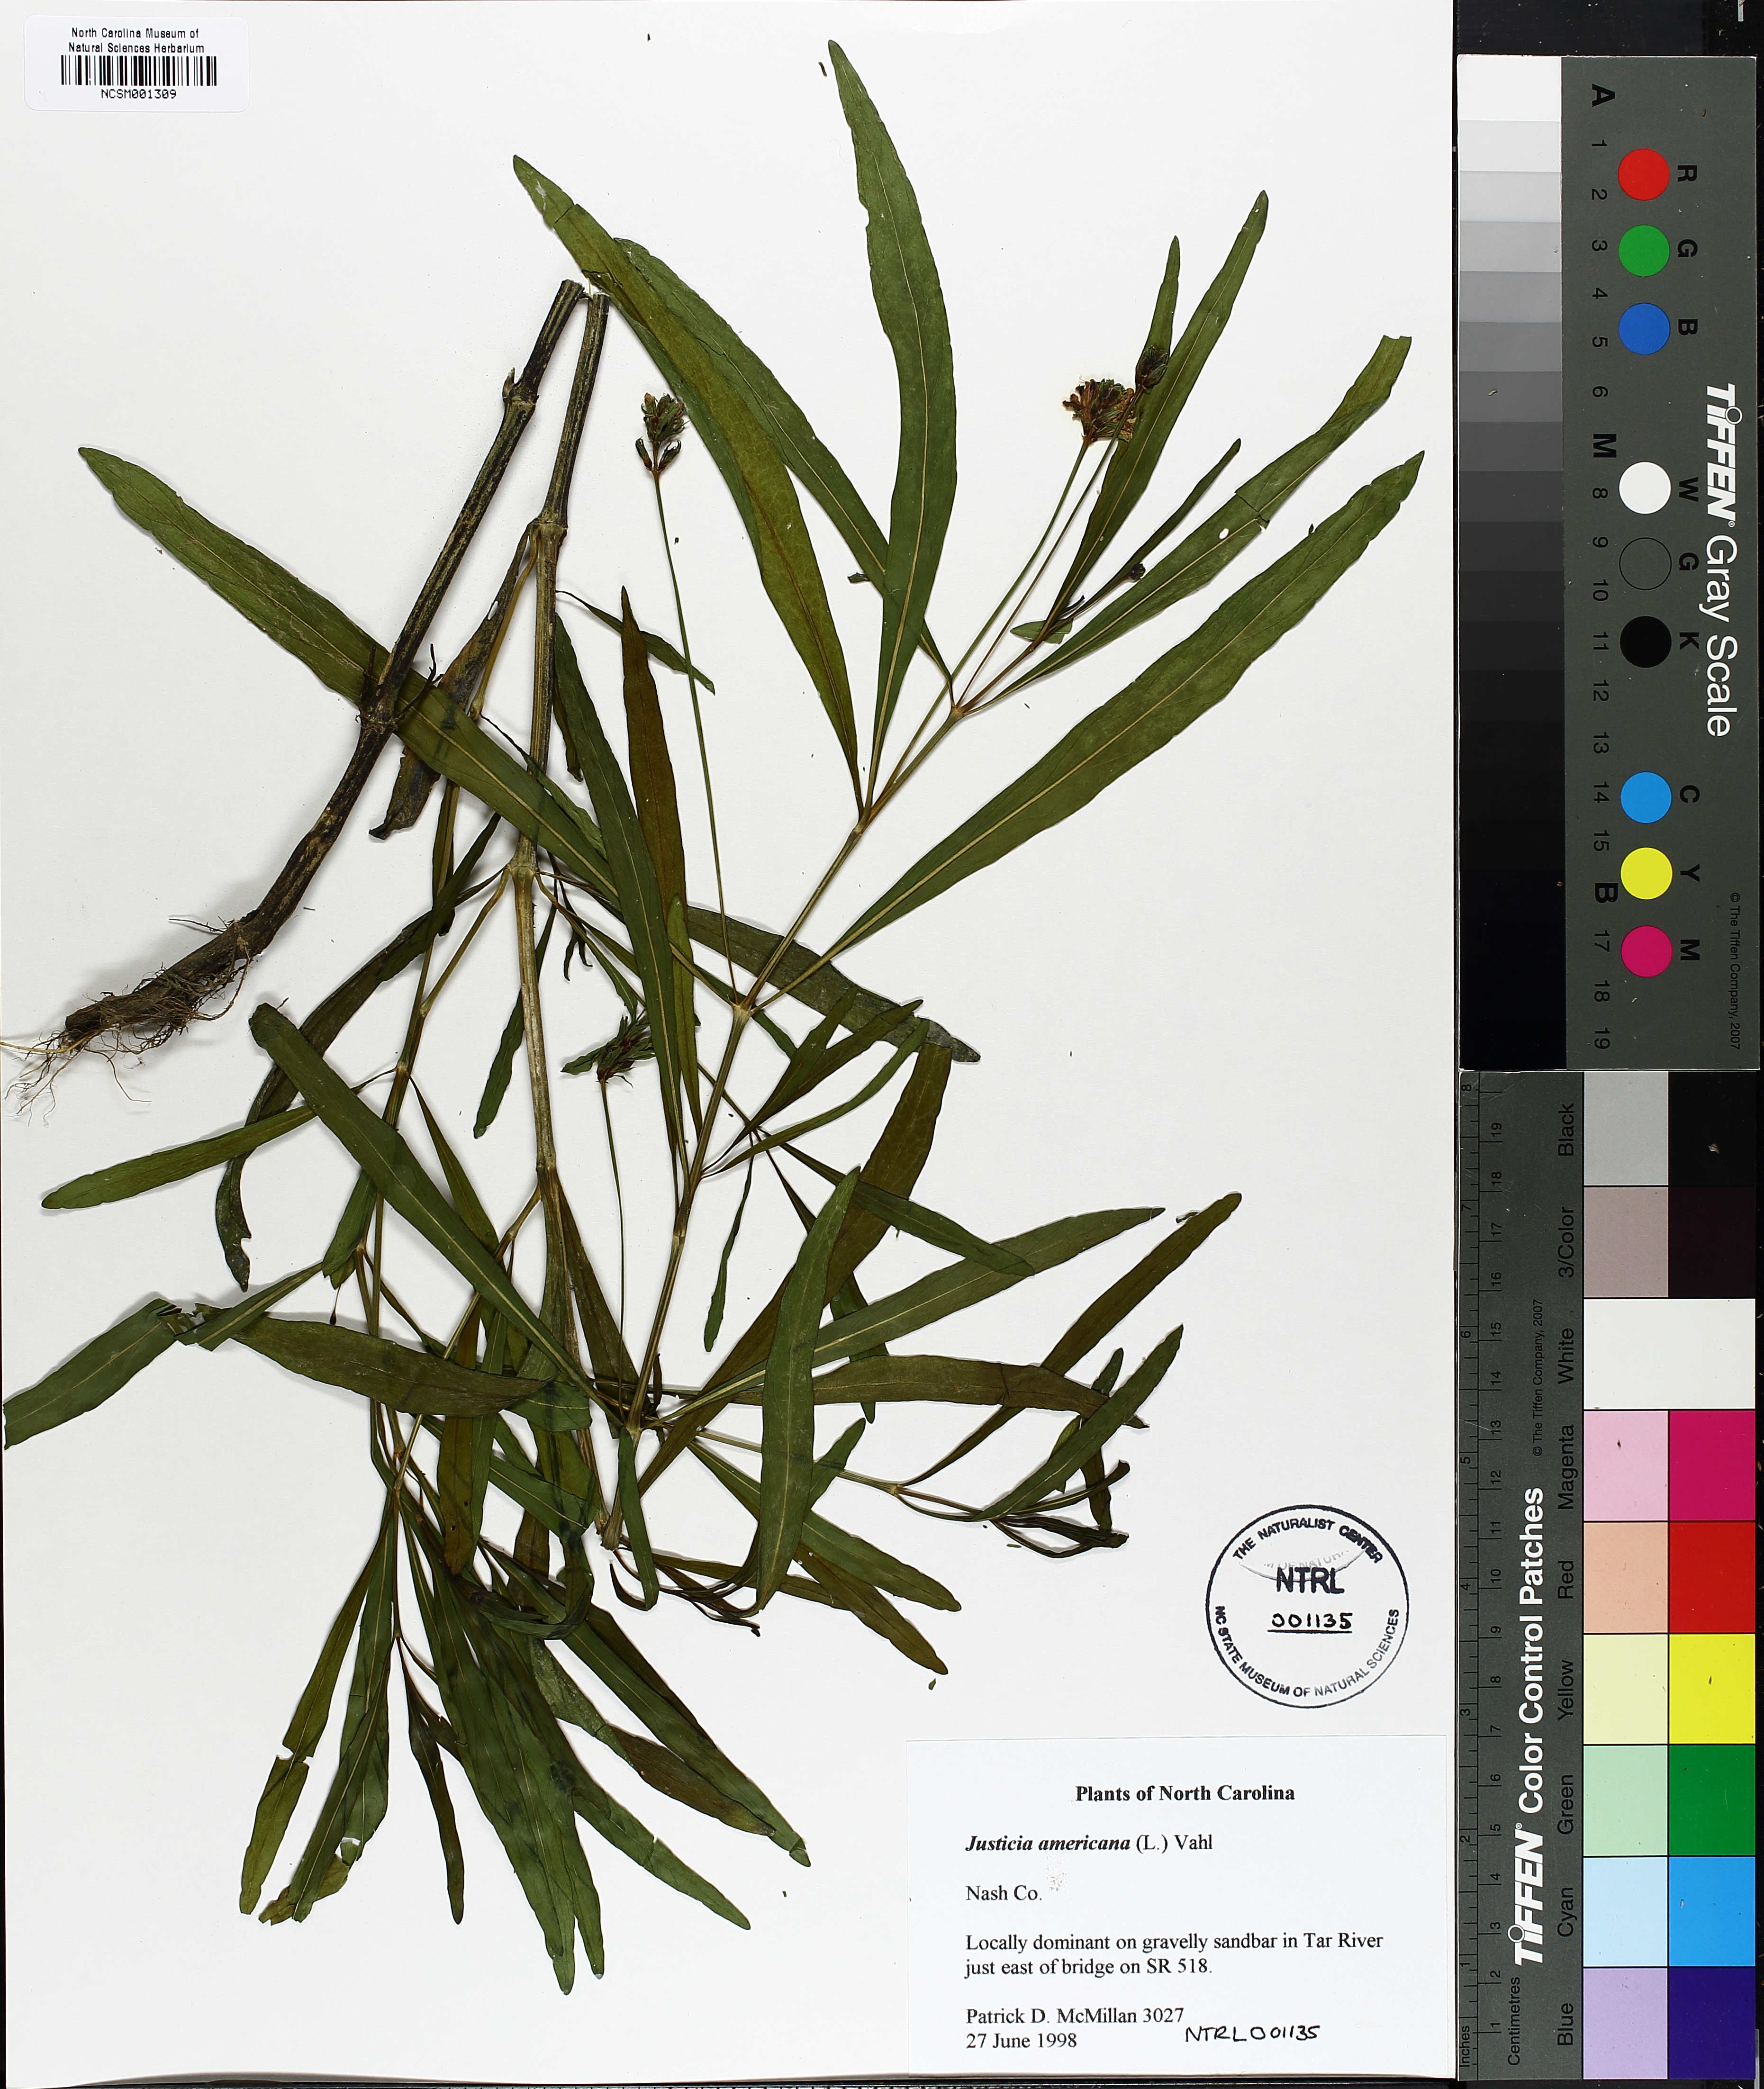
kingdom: Plantae
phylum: Tracheophyta
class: Magnoliopsida
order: Lamiales
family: Acanthaceae
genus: Dianthera
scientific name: Dianthera americana
